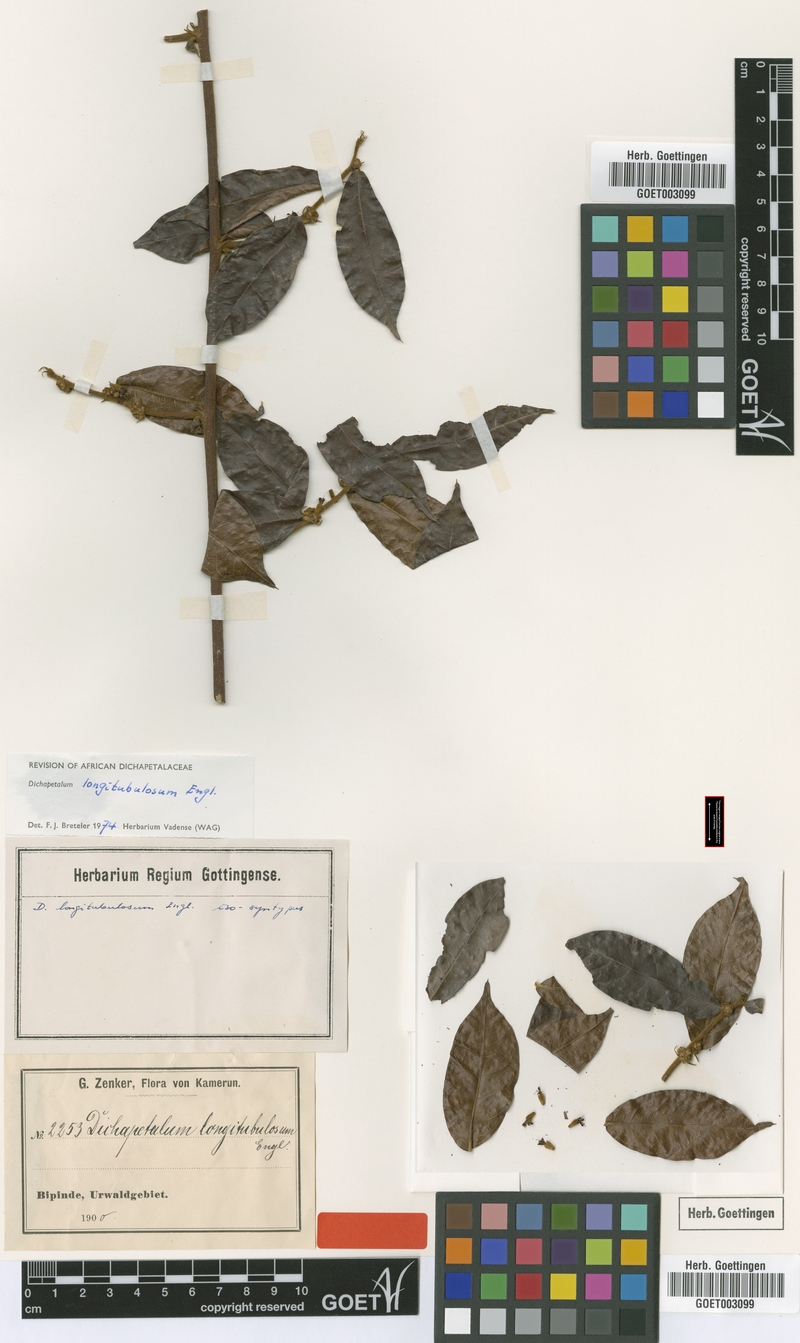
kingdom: Plantae
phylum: Tracheophyta
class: Magnoliopsida
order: Malpighiales
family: Dichapetalaceae
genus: Dichapetalum
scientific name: Dichapetalum heudelotii
